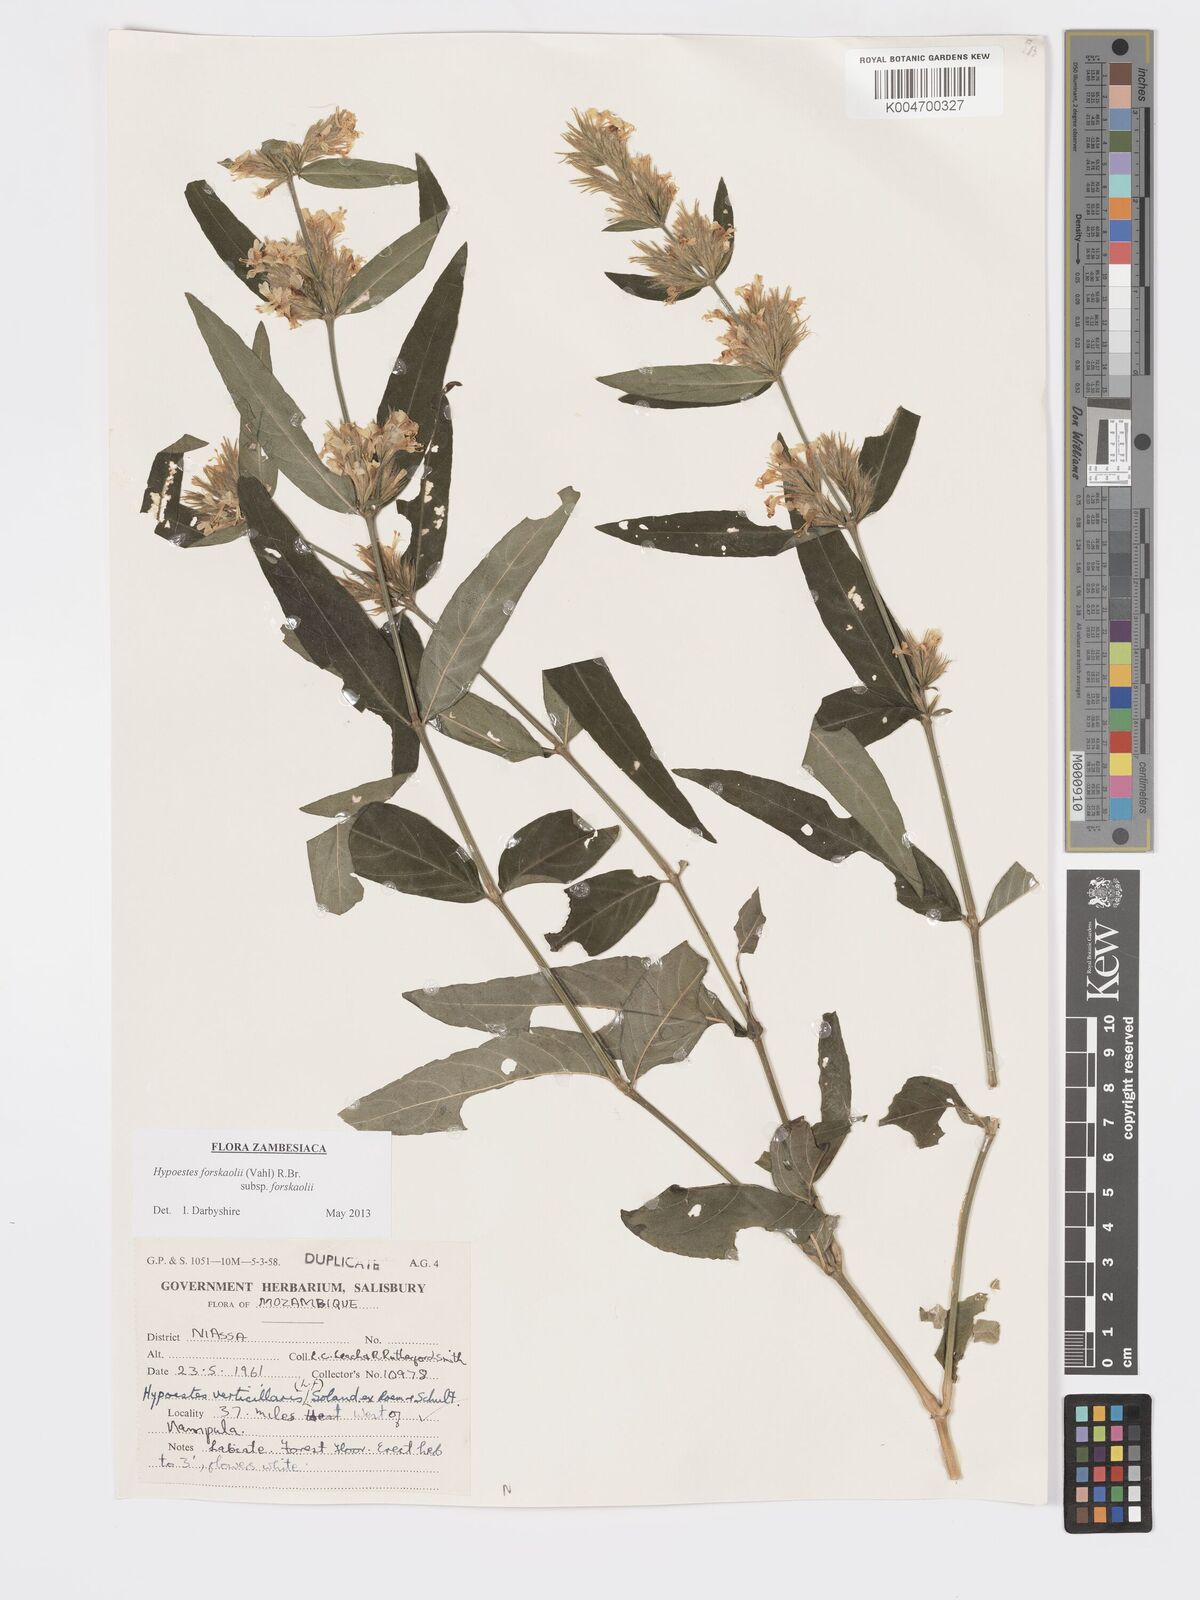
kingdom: Plantae
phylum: Tracheophyta
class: Magnoliopsida
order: Lamiales
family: Acanthaceae
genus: Hypoestes
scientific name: Hypoestes forskaolii
